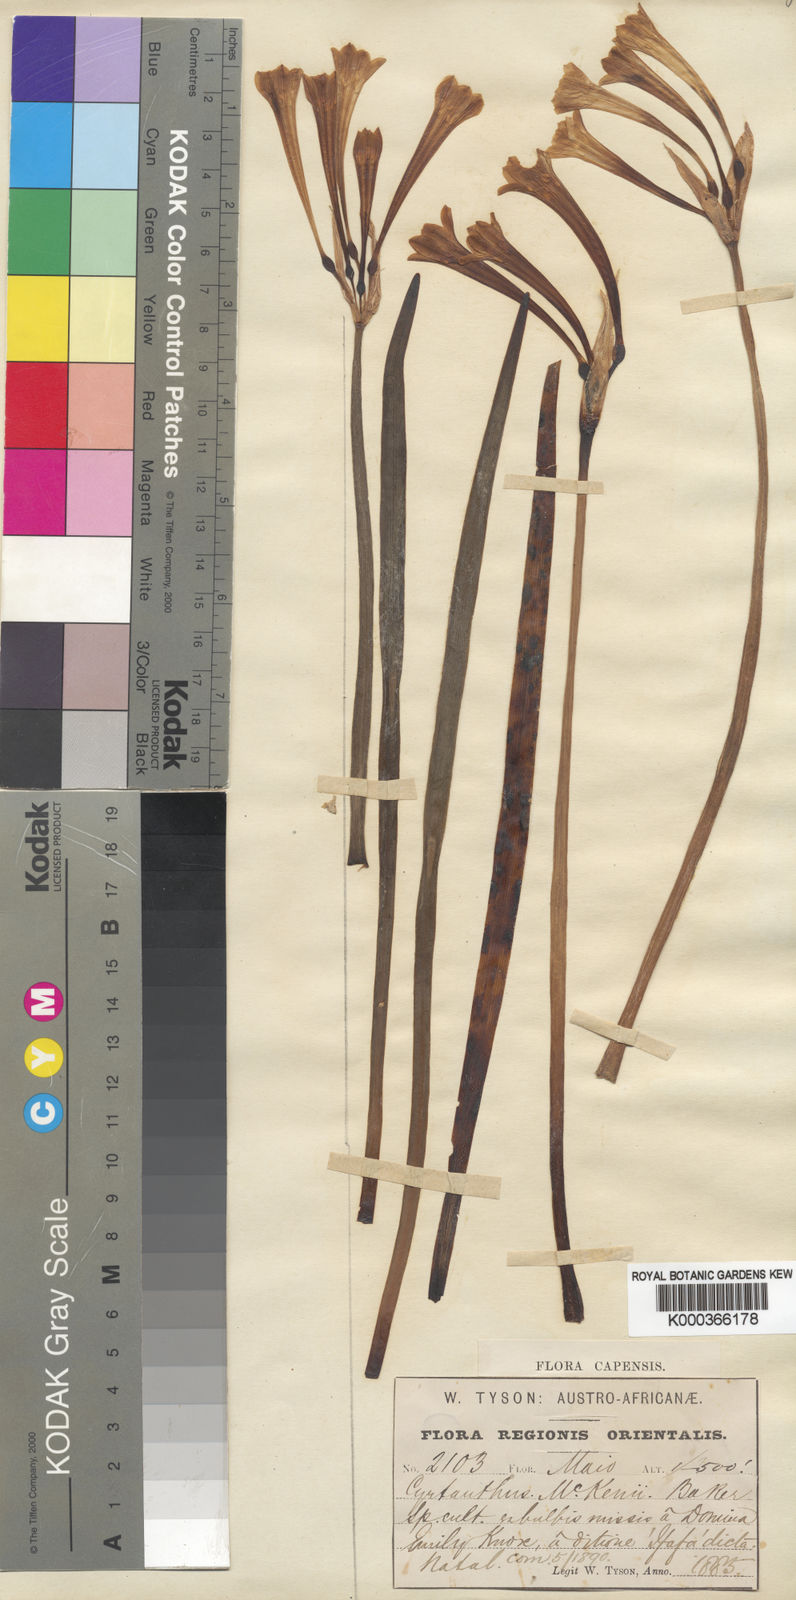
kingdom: Plantae
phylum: Tracheophyta
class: Liliopsida
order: Asparagales
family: Amaryllidaceae
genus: Cyrtanthus
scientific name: Cyrtanthus mackenii
